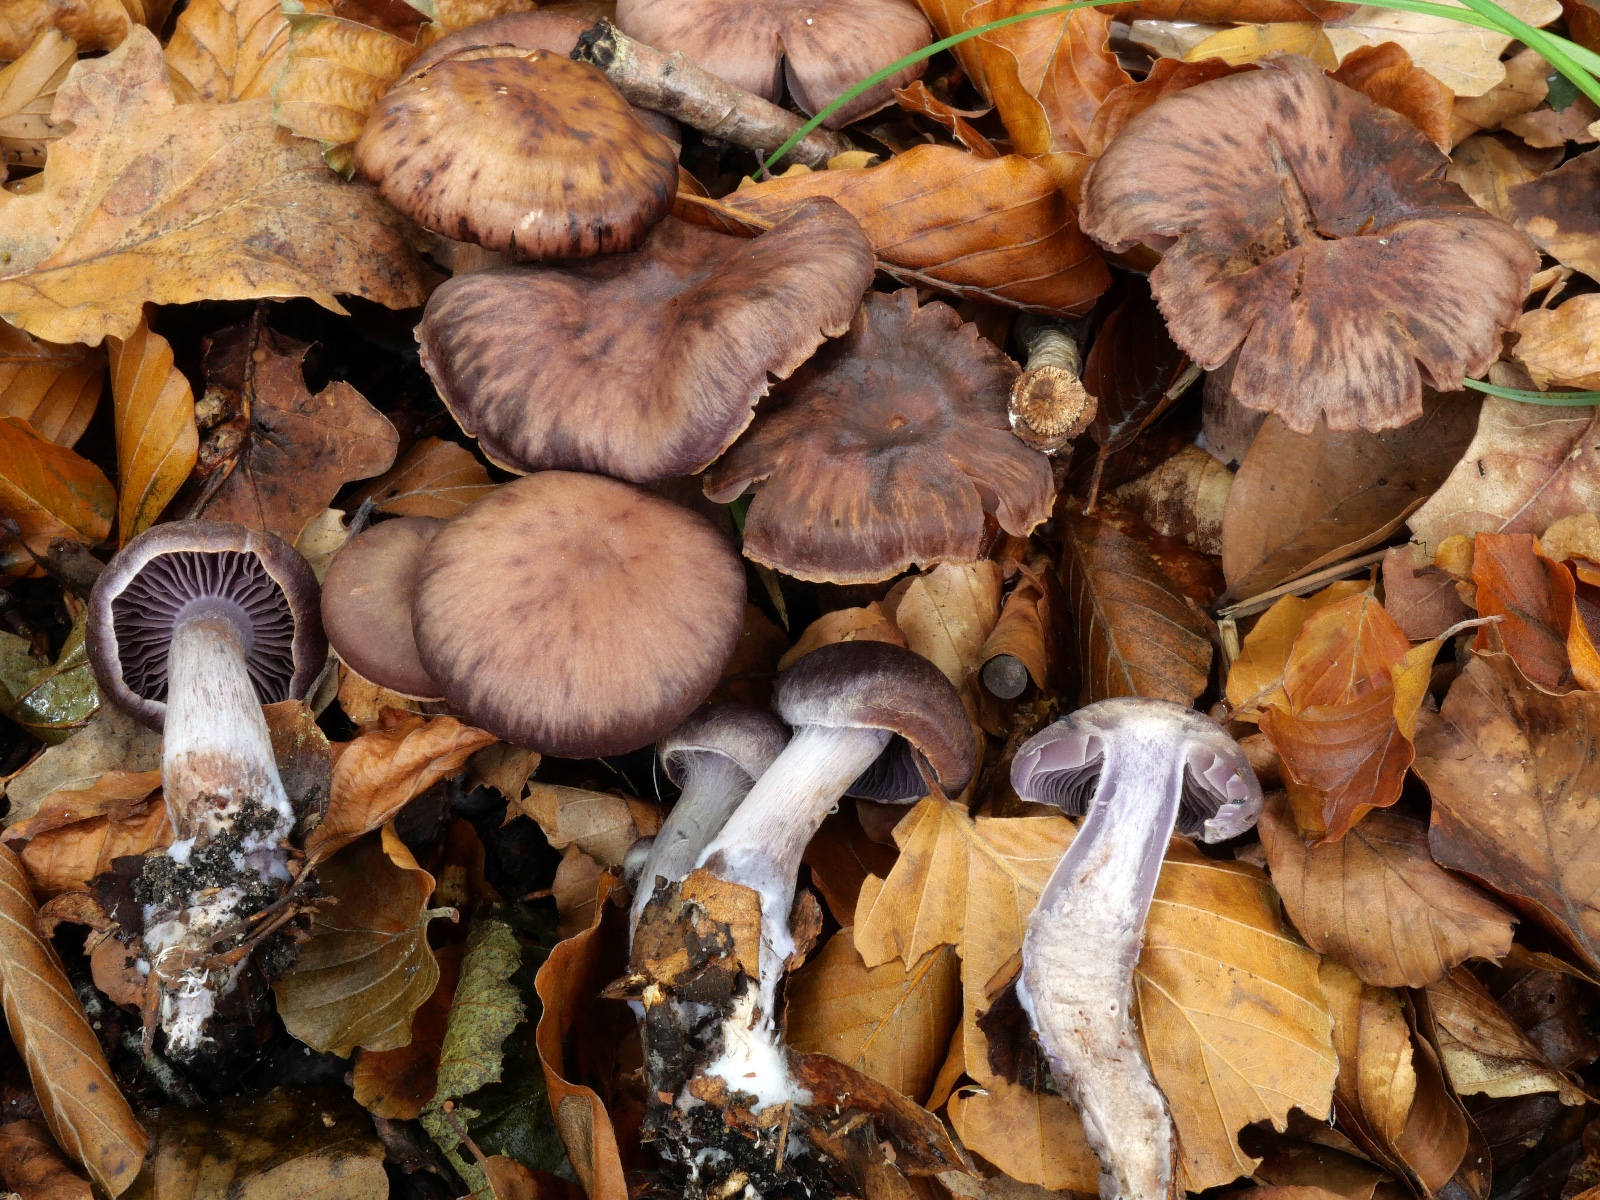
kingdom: Fungi
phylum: Basidiomycota
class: Agaricomycetes
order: Agaricales
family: Cortinariaceae
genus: Cortinarius
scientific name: Cortinarius serratissimus
